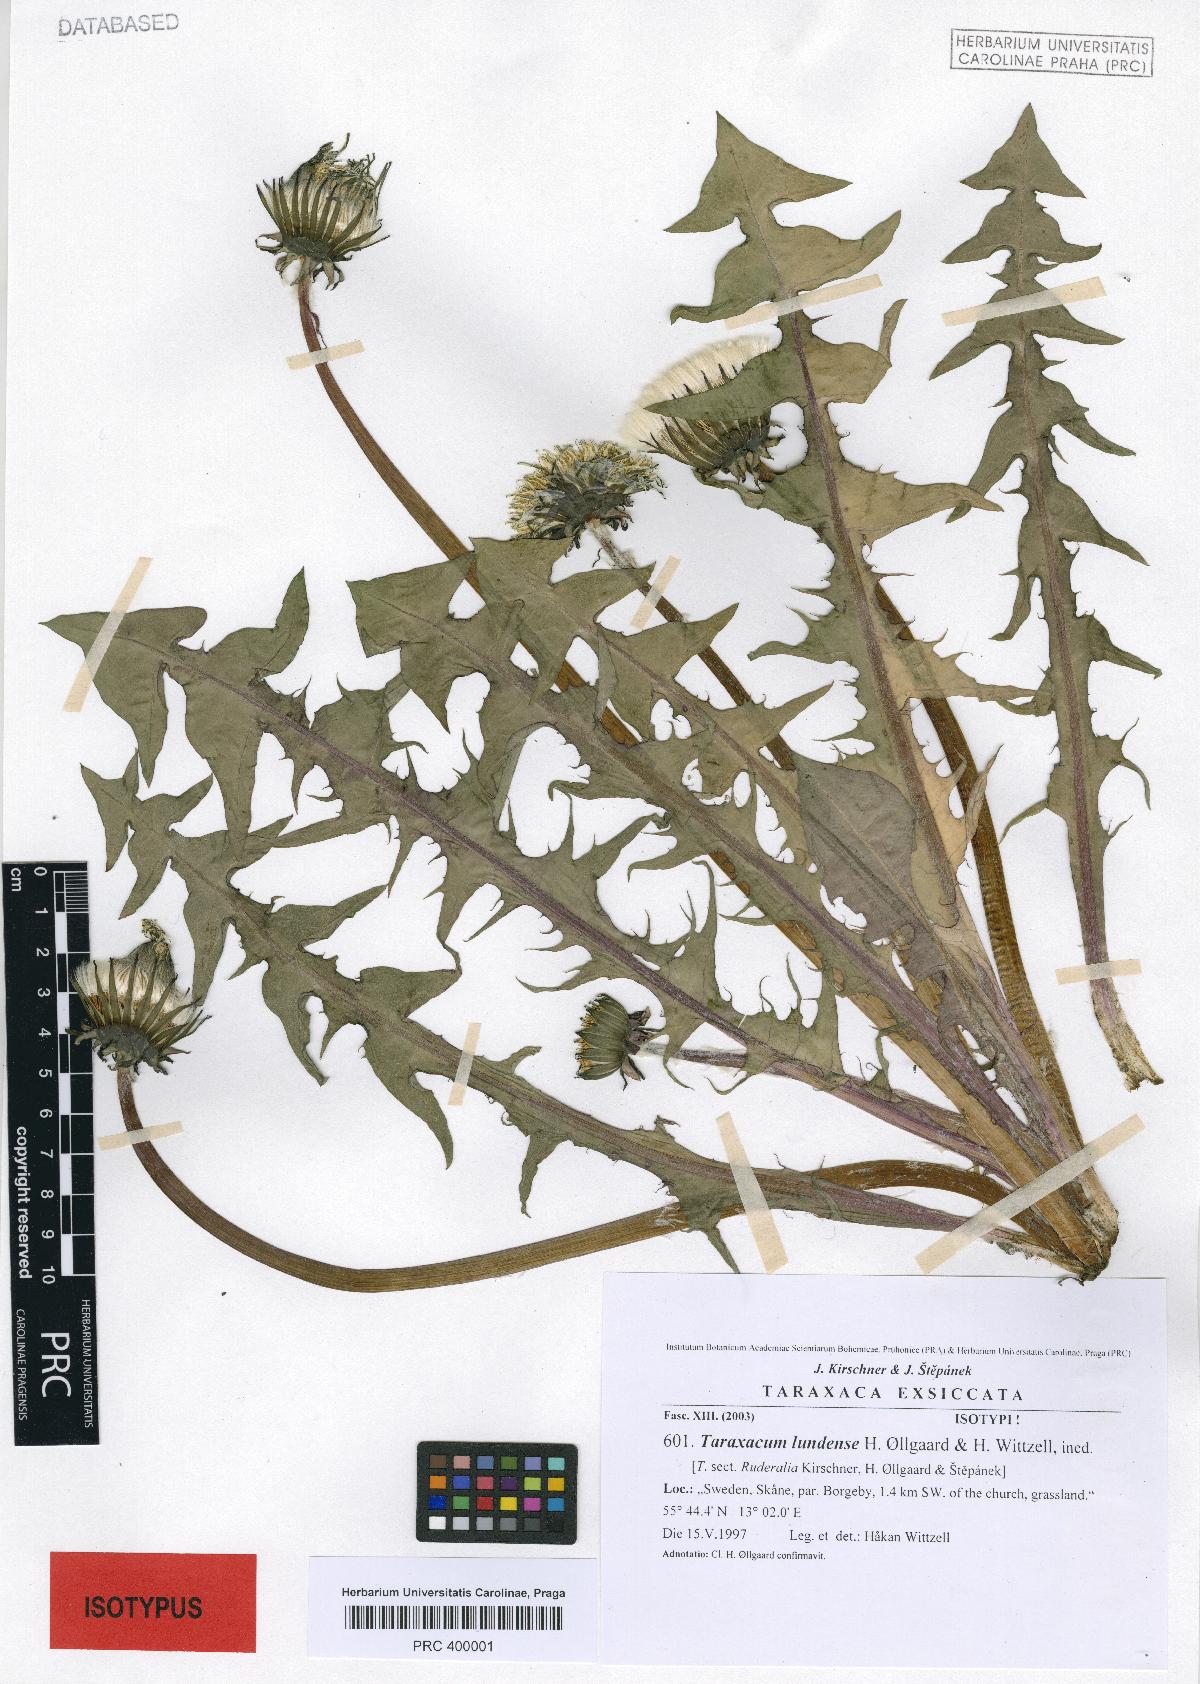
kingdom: Plantae
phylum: Tracheophyta
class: Magnoliopsida
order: Asterales
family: Asteraceae
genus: Taraxacum
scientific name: Taraxacum lundense
